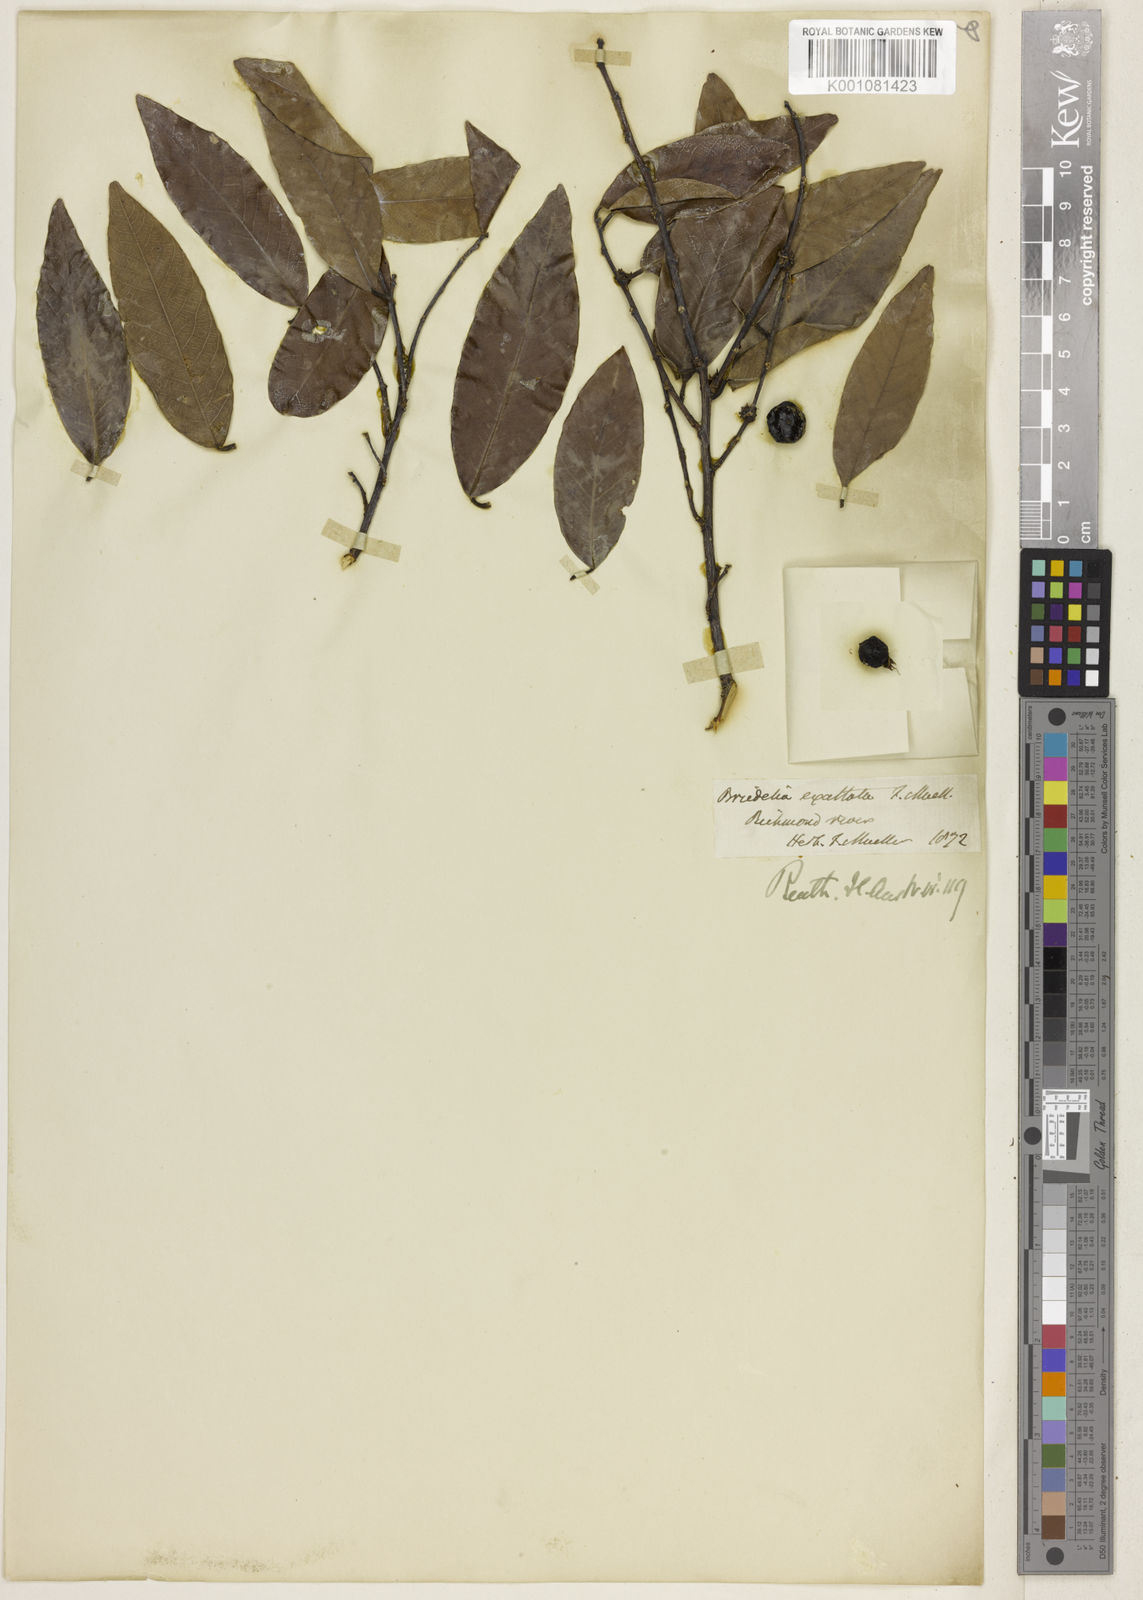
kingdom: Plantae
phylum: Tracheophyta
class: Magnoliopsida
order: Malpighiales
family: Phyllanthaceae
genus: Bridelia
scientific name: Bridelia exaltata
